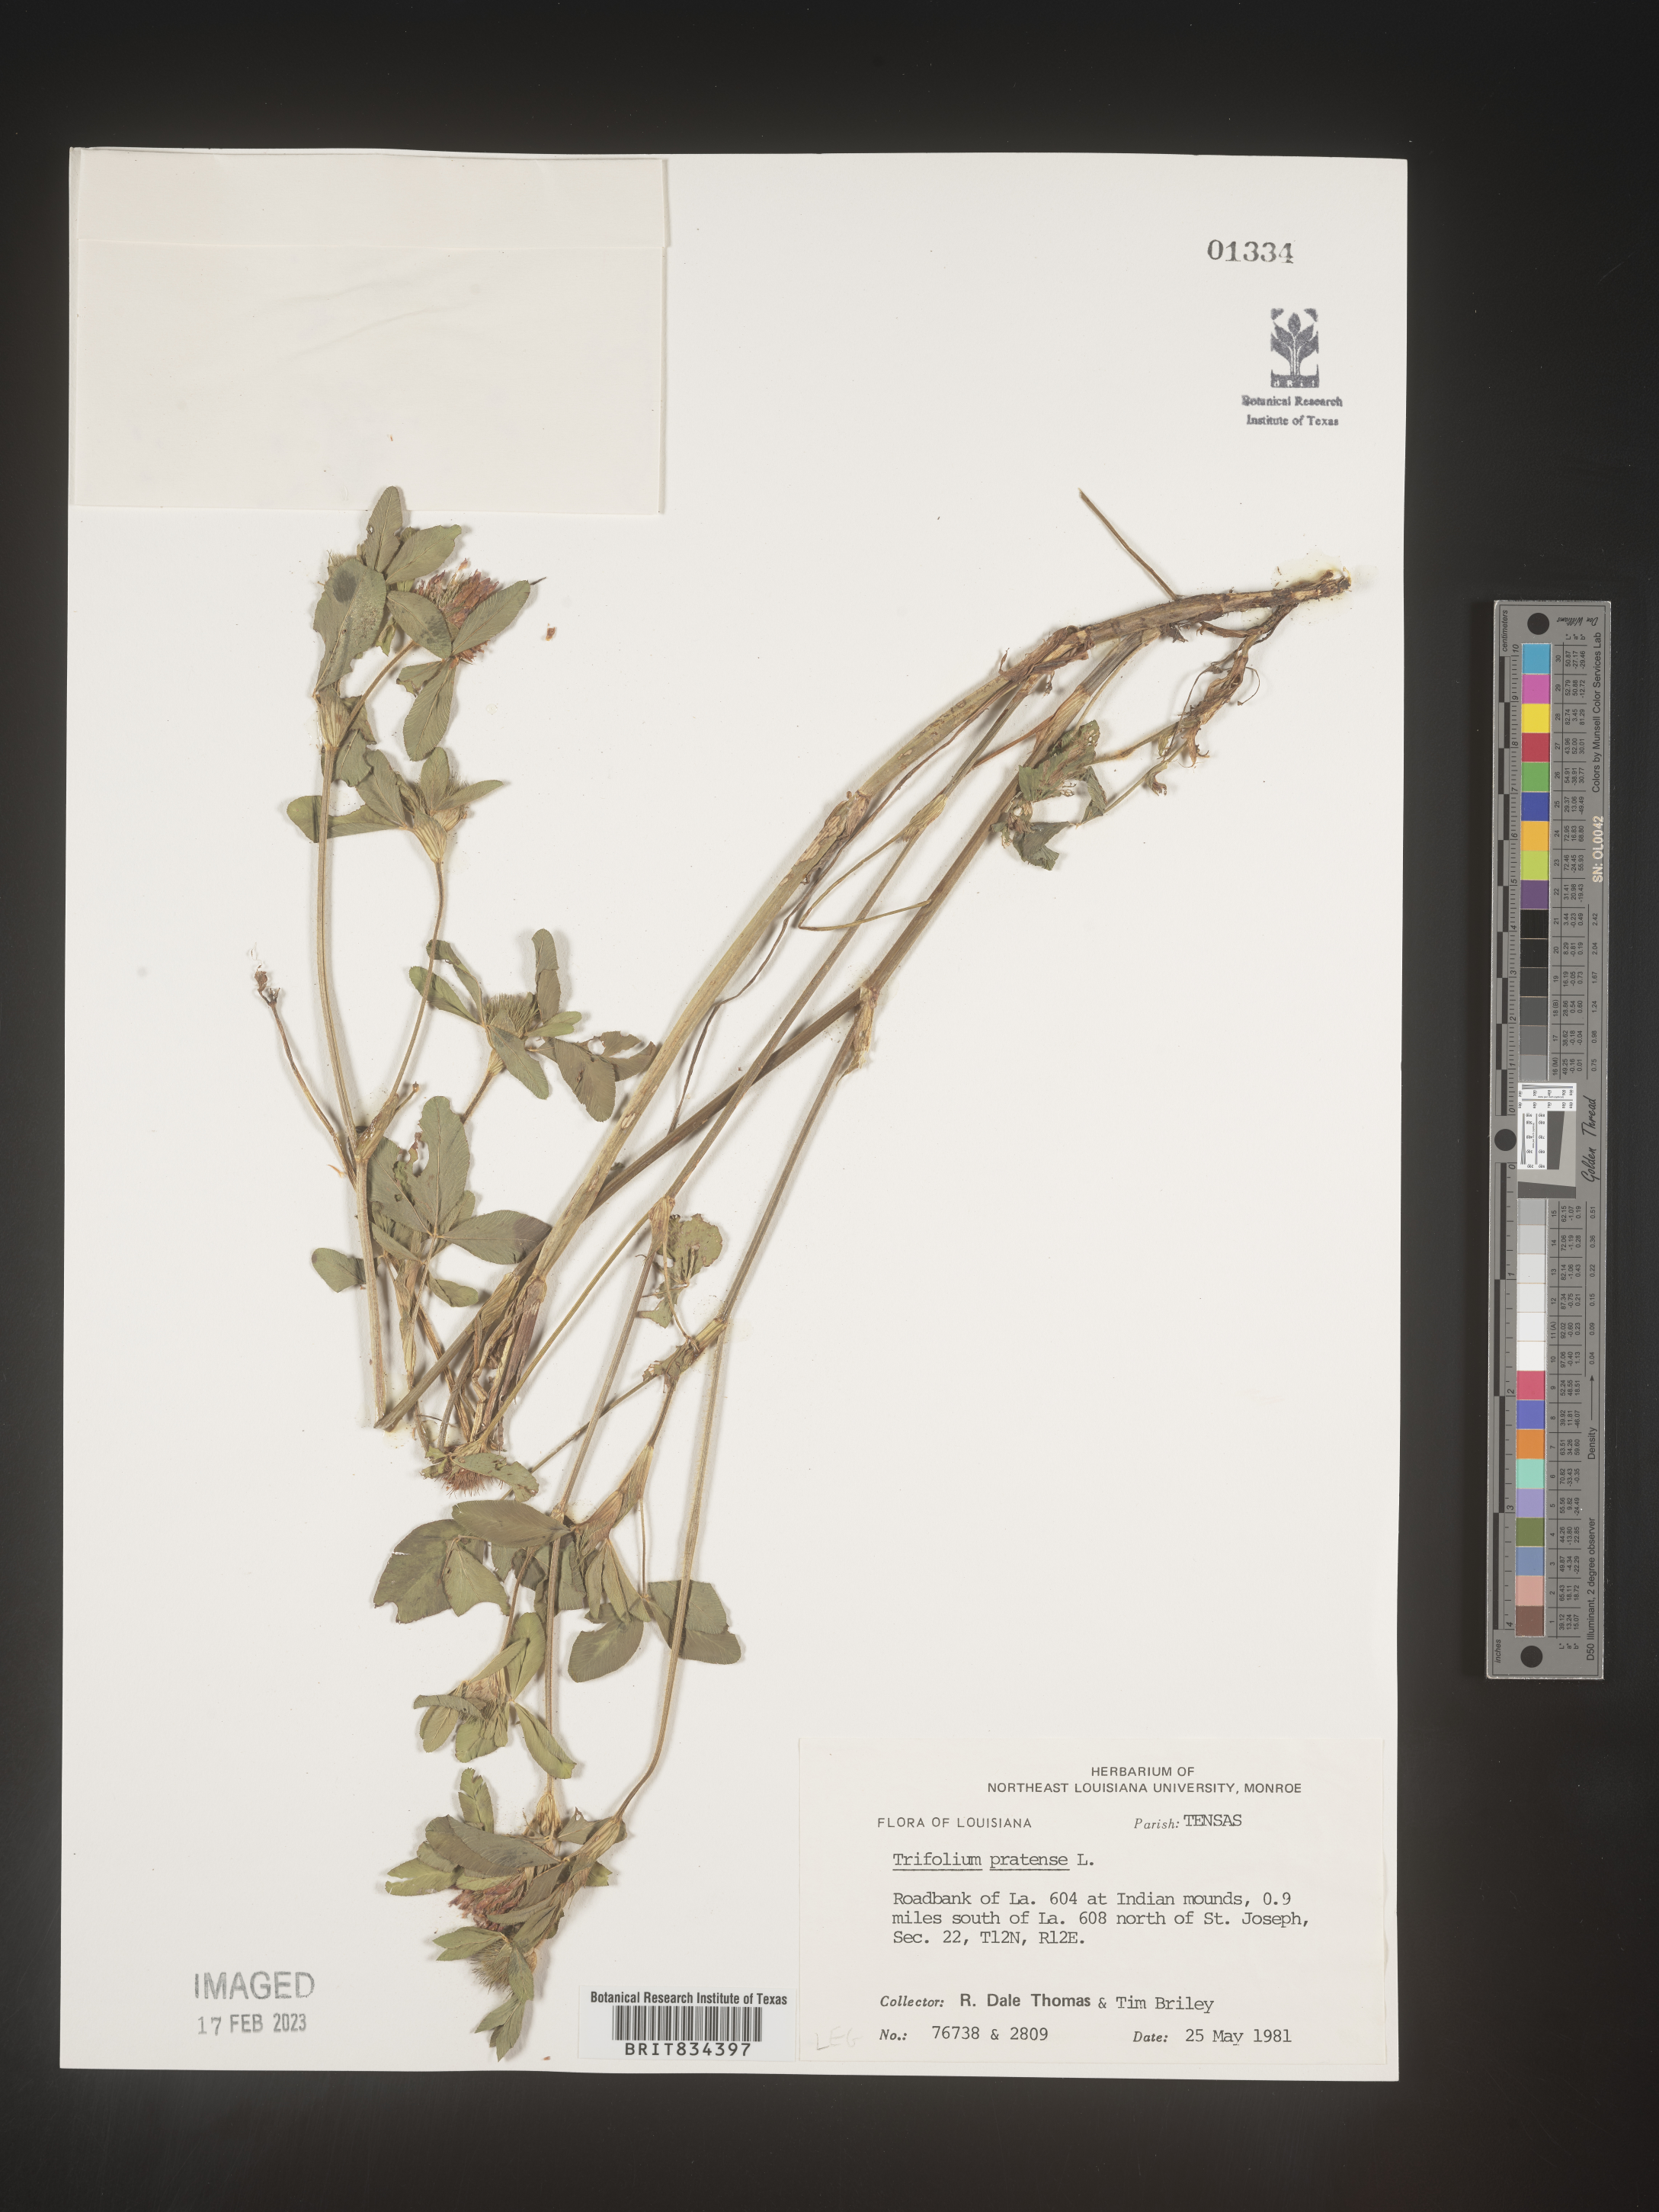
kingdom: Plantae
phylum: Tracheophyta
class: Magnoliopsida
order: Fabales
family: Fabaceae
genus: Trifolium
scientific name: Trifolium pratense
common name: Red clover
